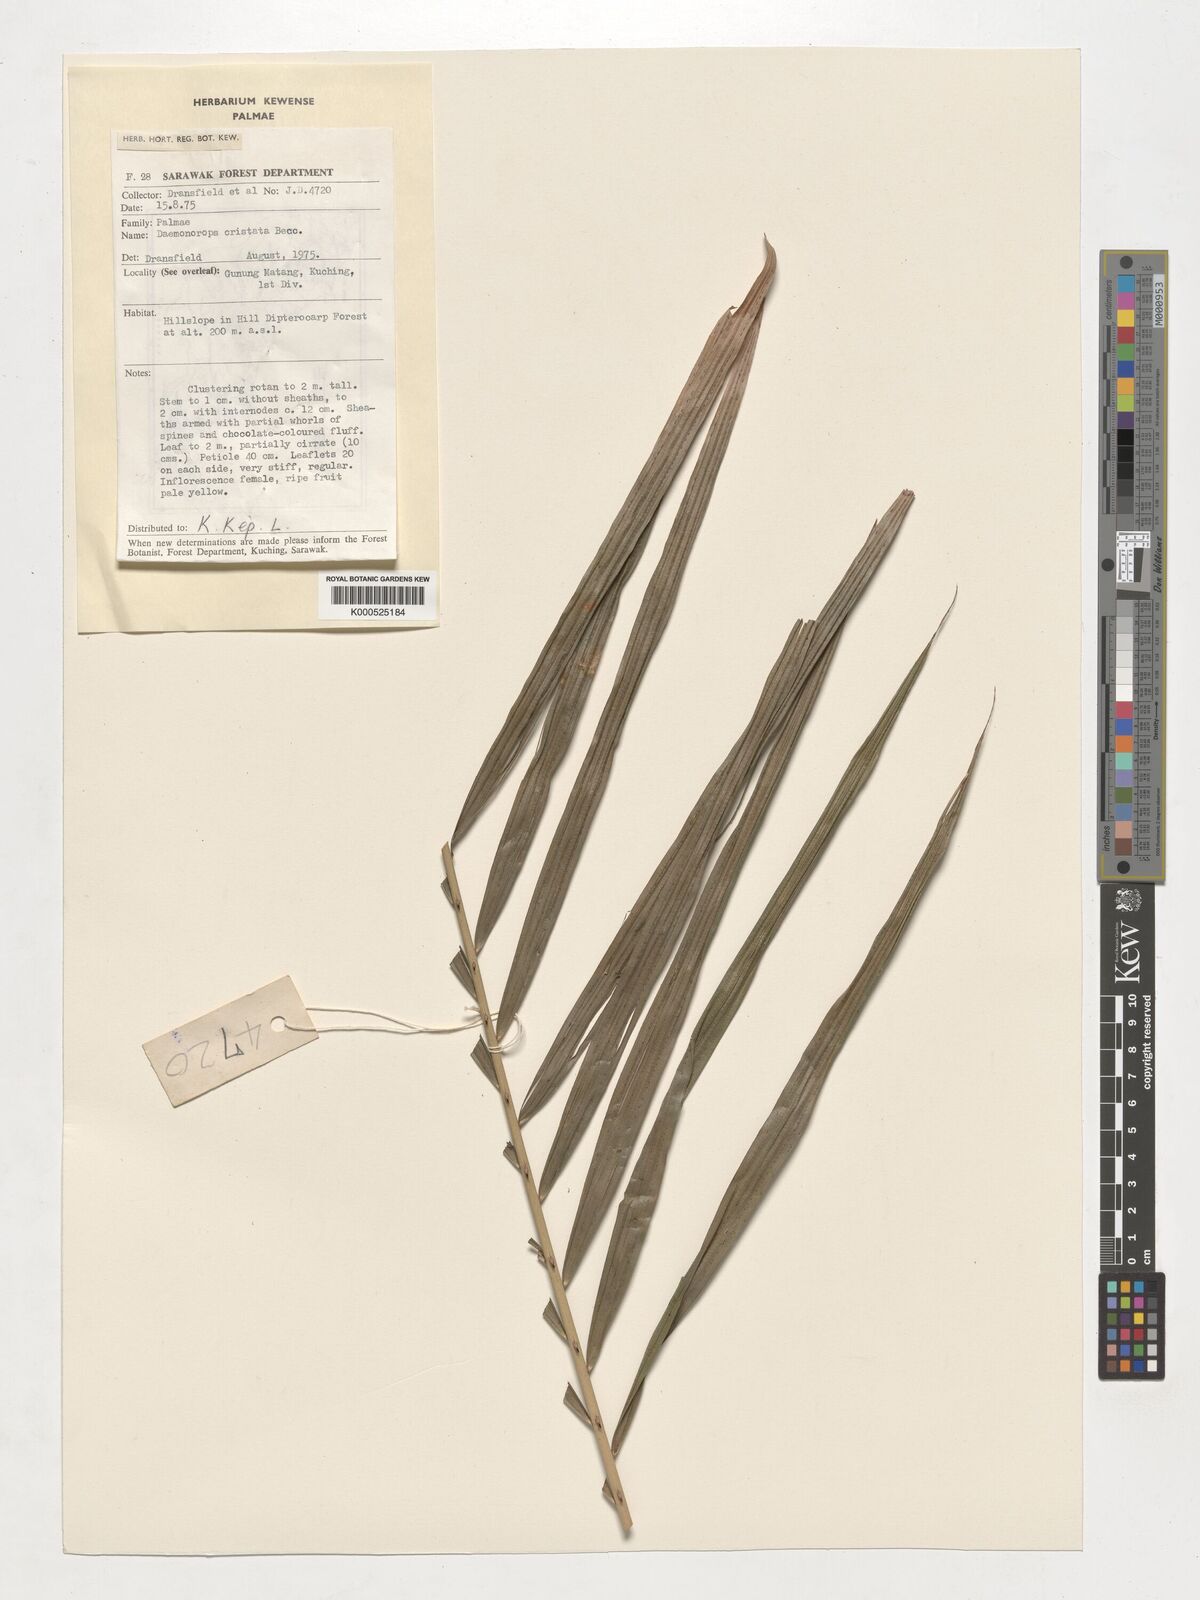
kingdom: Plantae
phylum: Tracheophyta
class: Liliopsida
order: Arecales
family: Arecaceae
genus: Calamus
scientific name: Calamus cristatus
